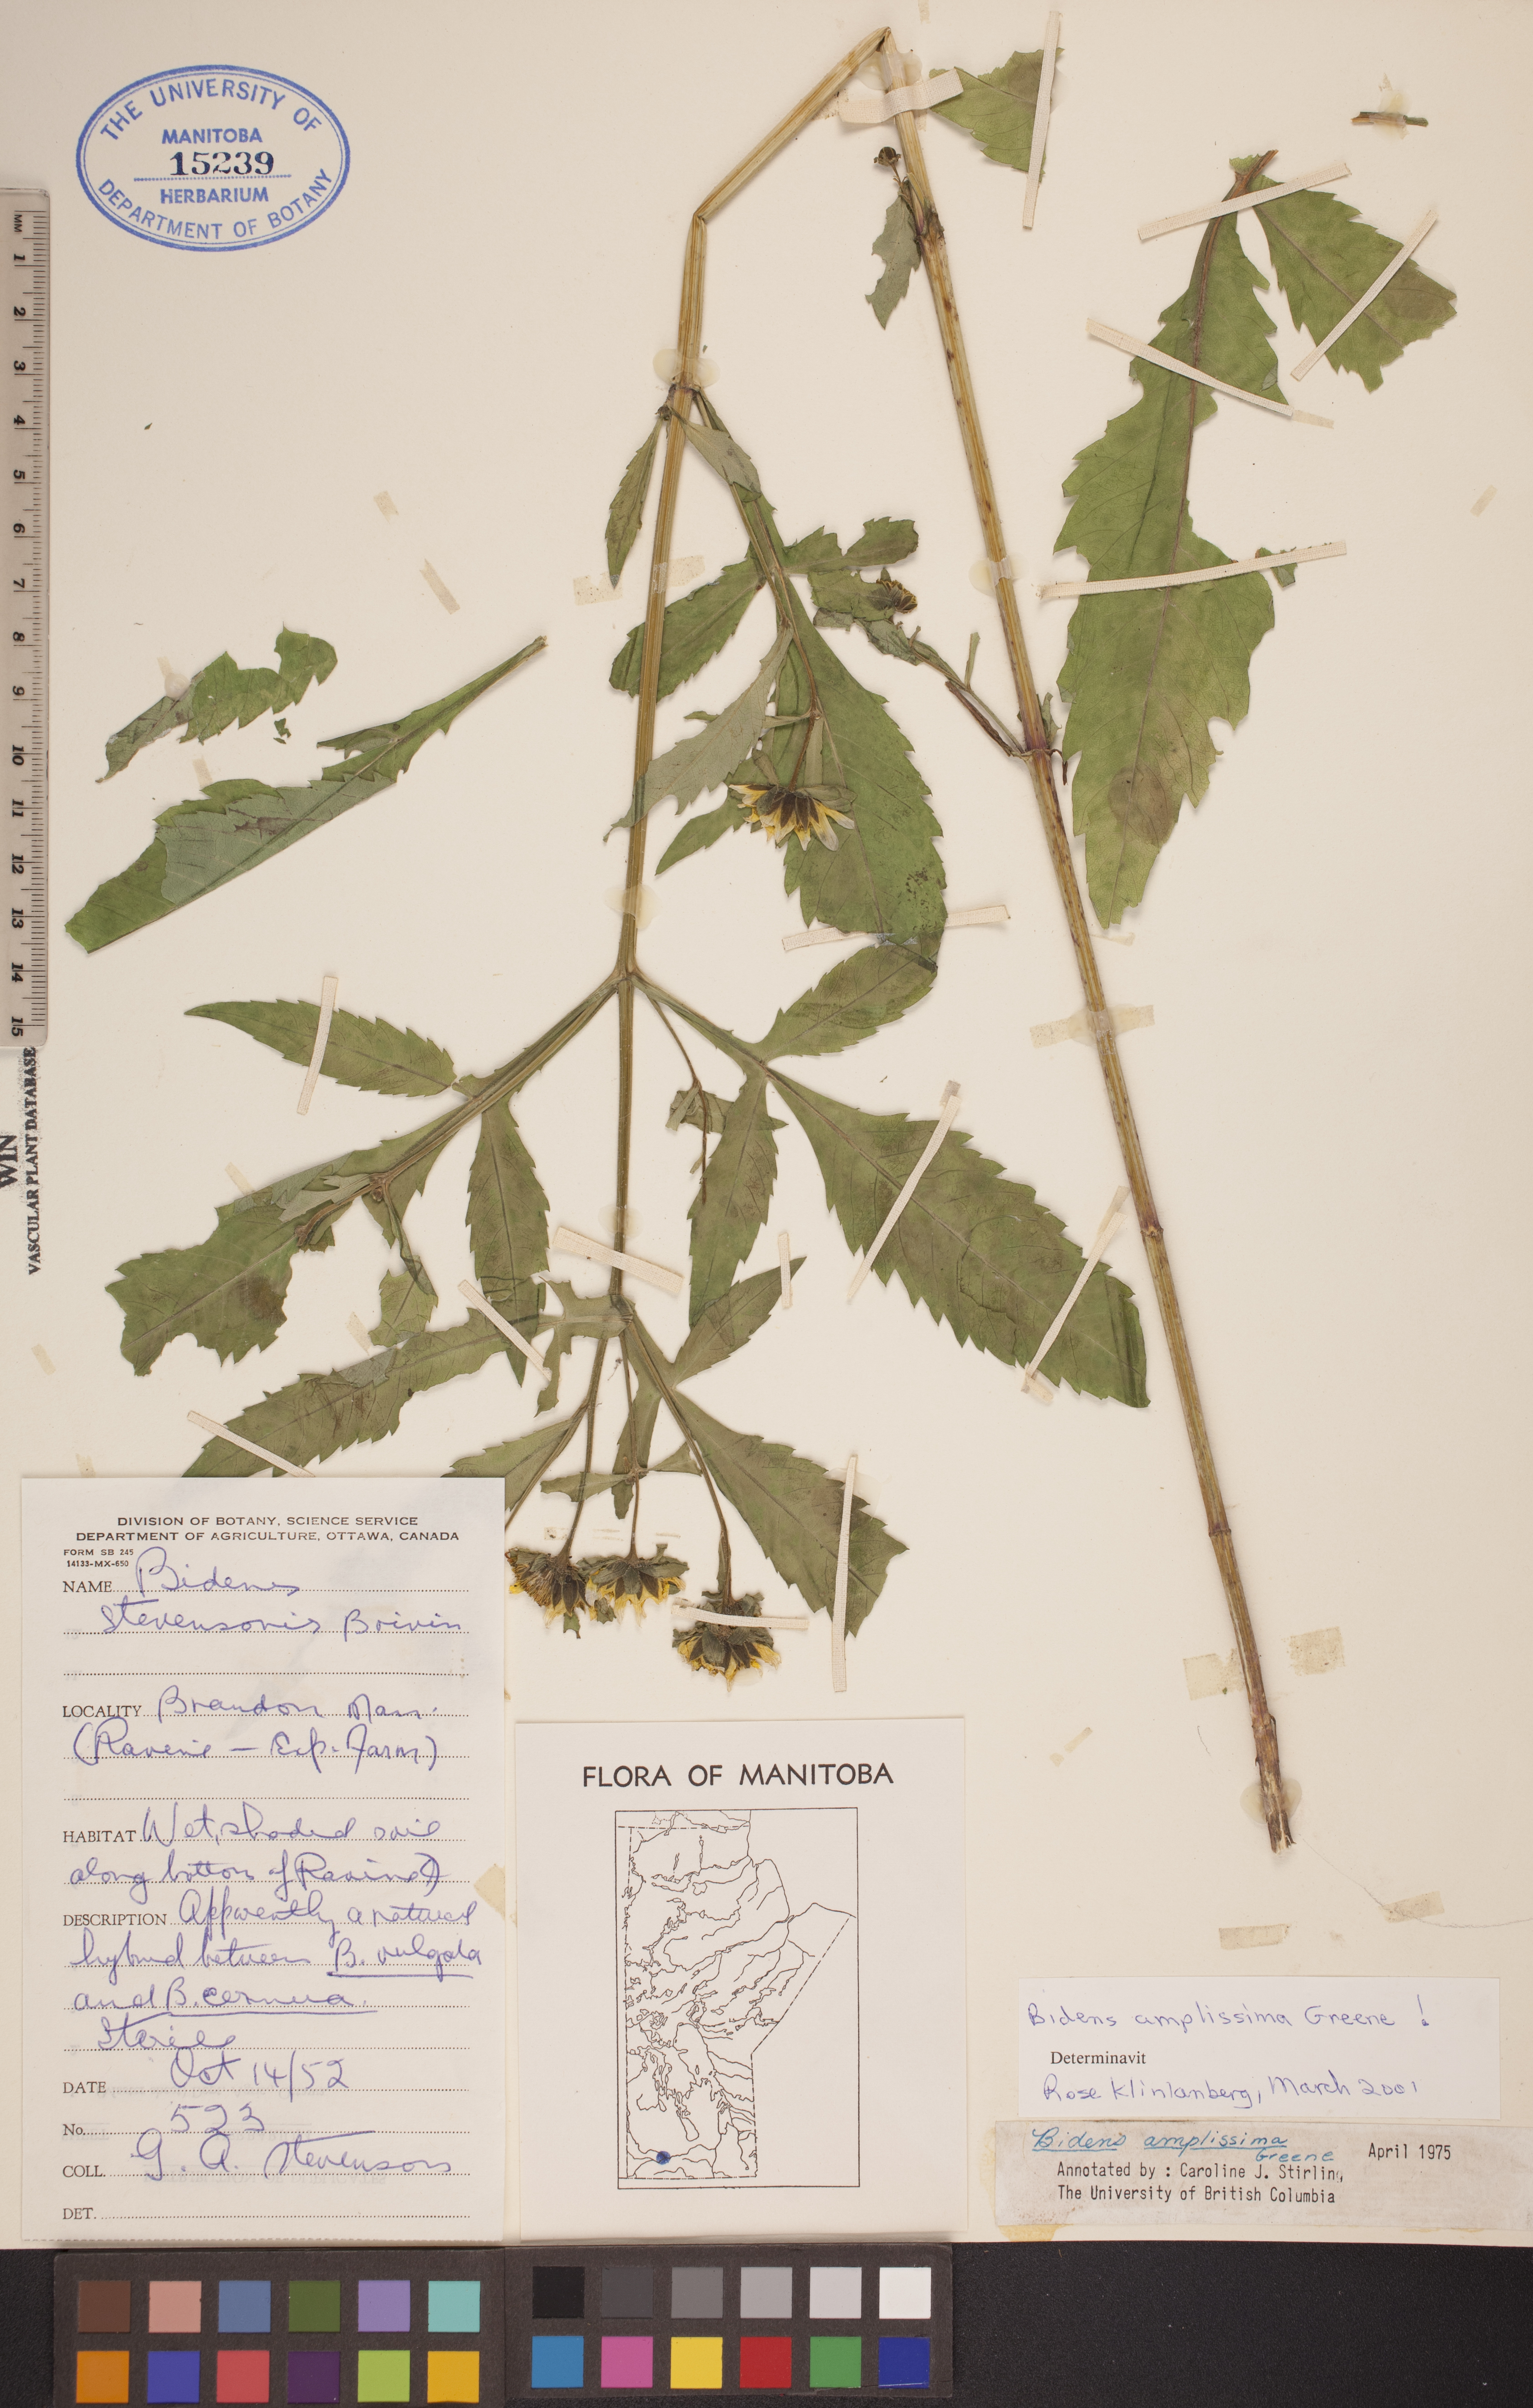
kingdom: Plantae
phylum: Tracheophyta
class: Magnoliopsida
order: Asterales
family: Asteraceae
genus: Bidens
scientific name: Bidens amplissima
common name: Vancouver island beggarticks
